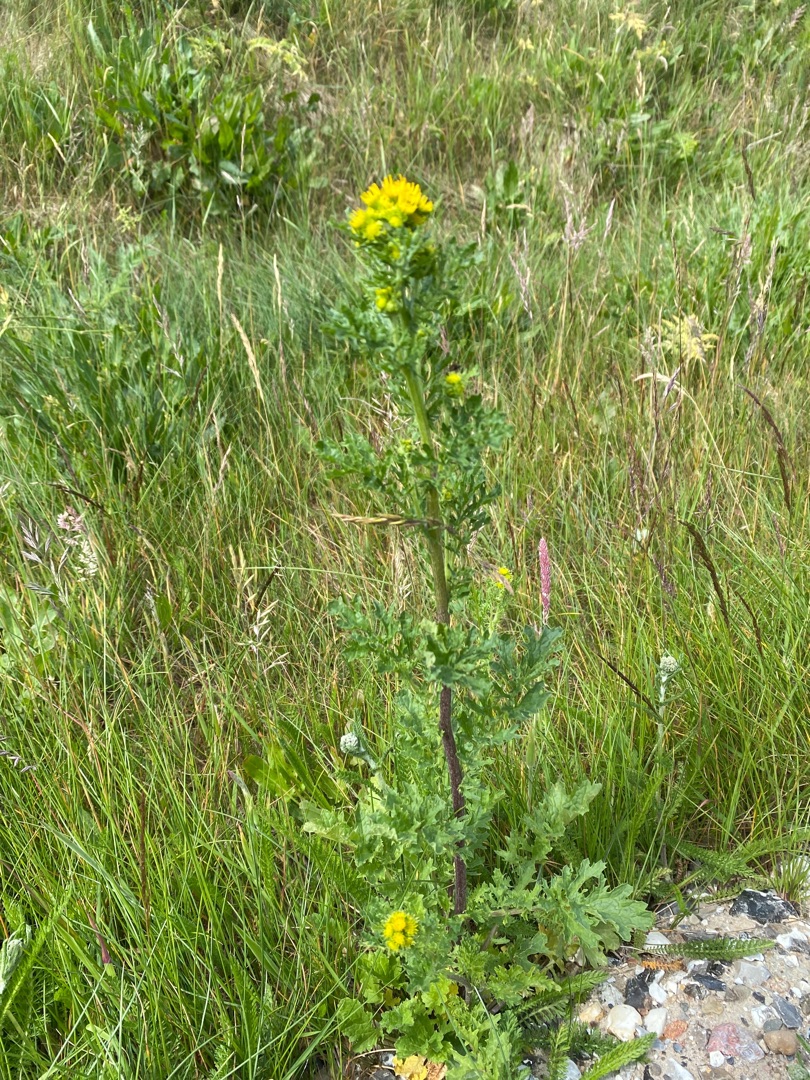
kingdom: Plantae
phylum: Tracheophyta
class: Magnoliopsida
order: Asterales
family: Asteraceae
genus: Jacobaea
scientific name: Jacobaea vulgaris
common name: Eng-brandbæger
